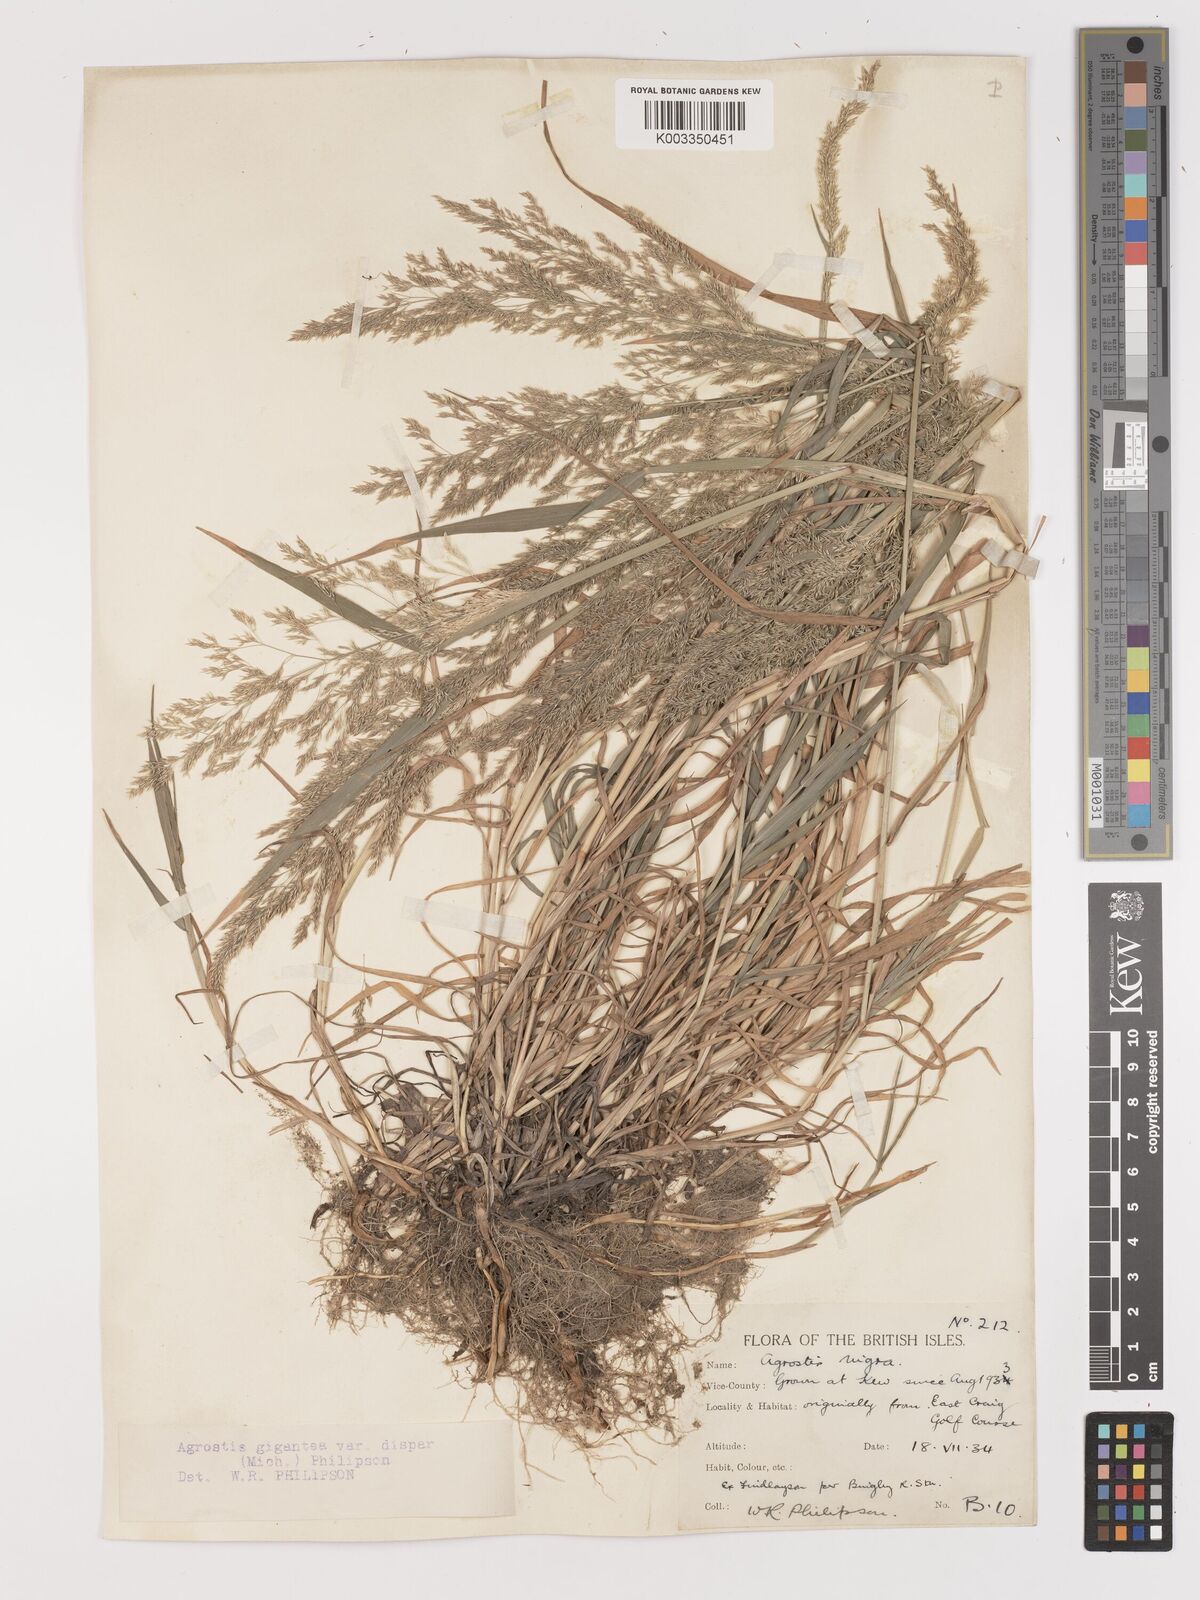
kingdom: Plantae
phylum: Tracheophyta
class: Liliopsida
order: Poales
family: Poaceae
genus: Agrostis
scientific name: Agrostis gigantea
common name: Black bent
